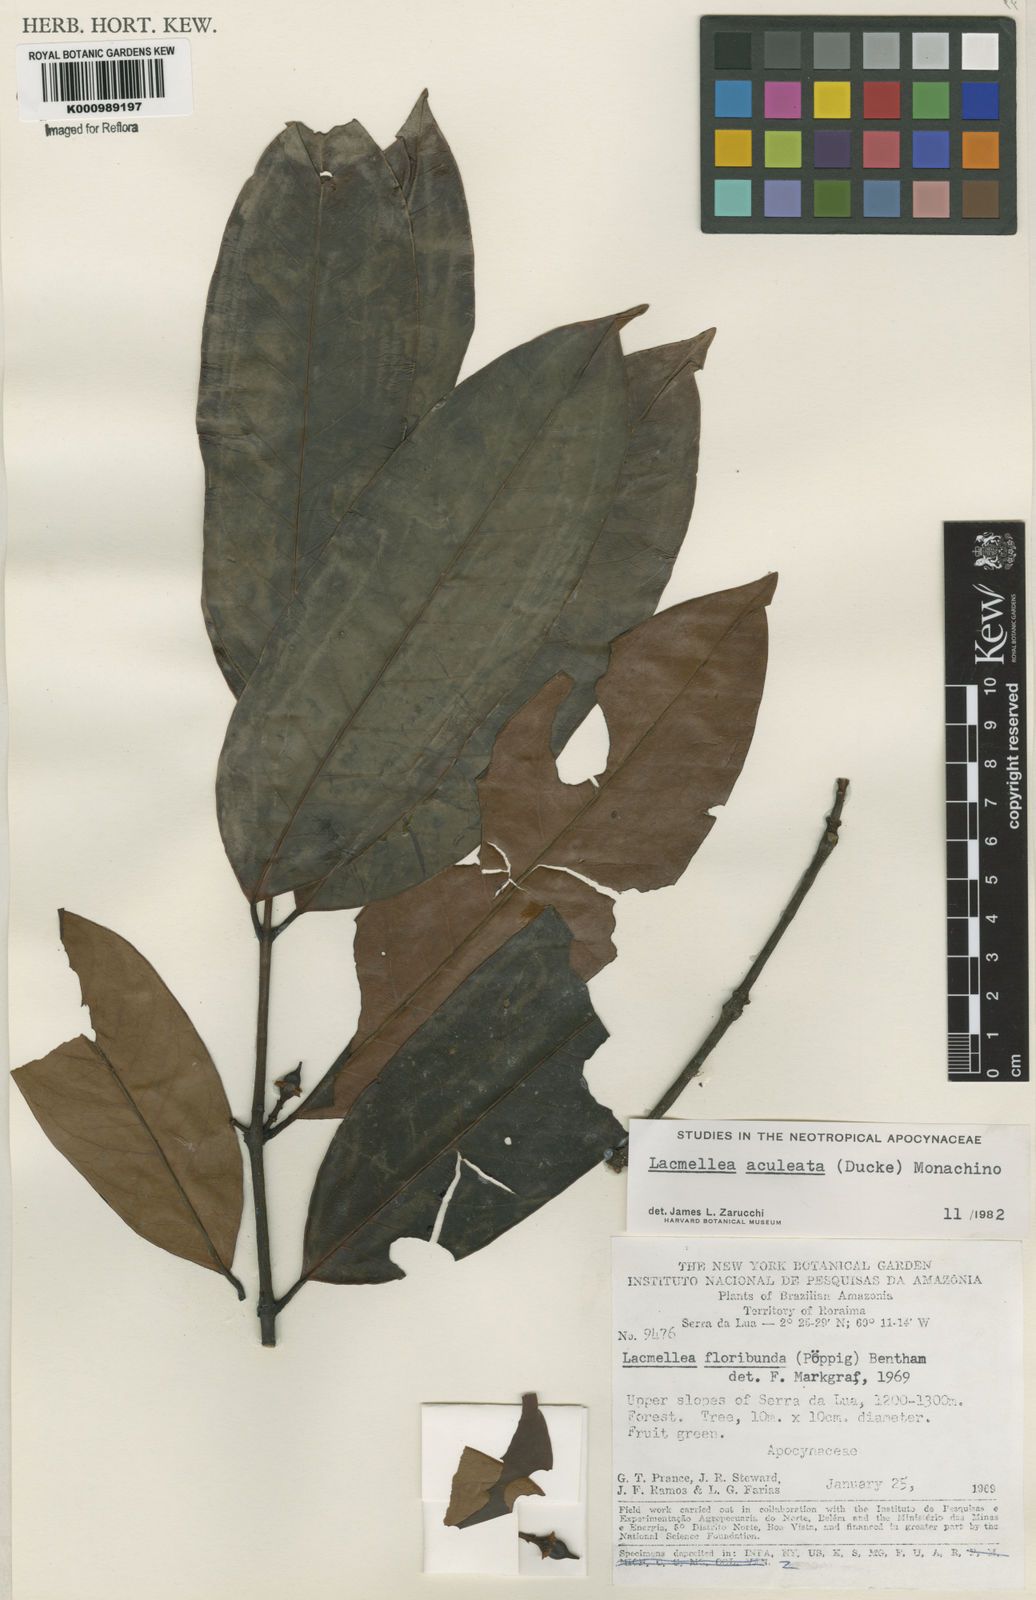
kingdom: Plantae
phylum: Tracheophyta
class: Magnoliopsida
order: Gentianales
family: Apocynaceae
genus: Lacmellea
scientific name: Lacmellea floribunda
